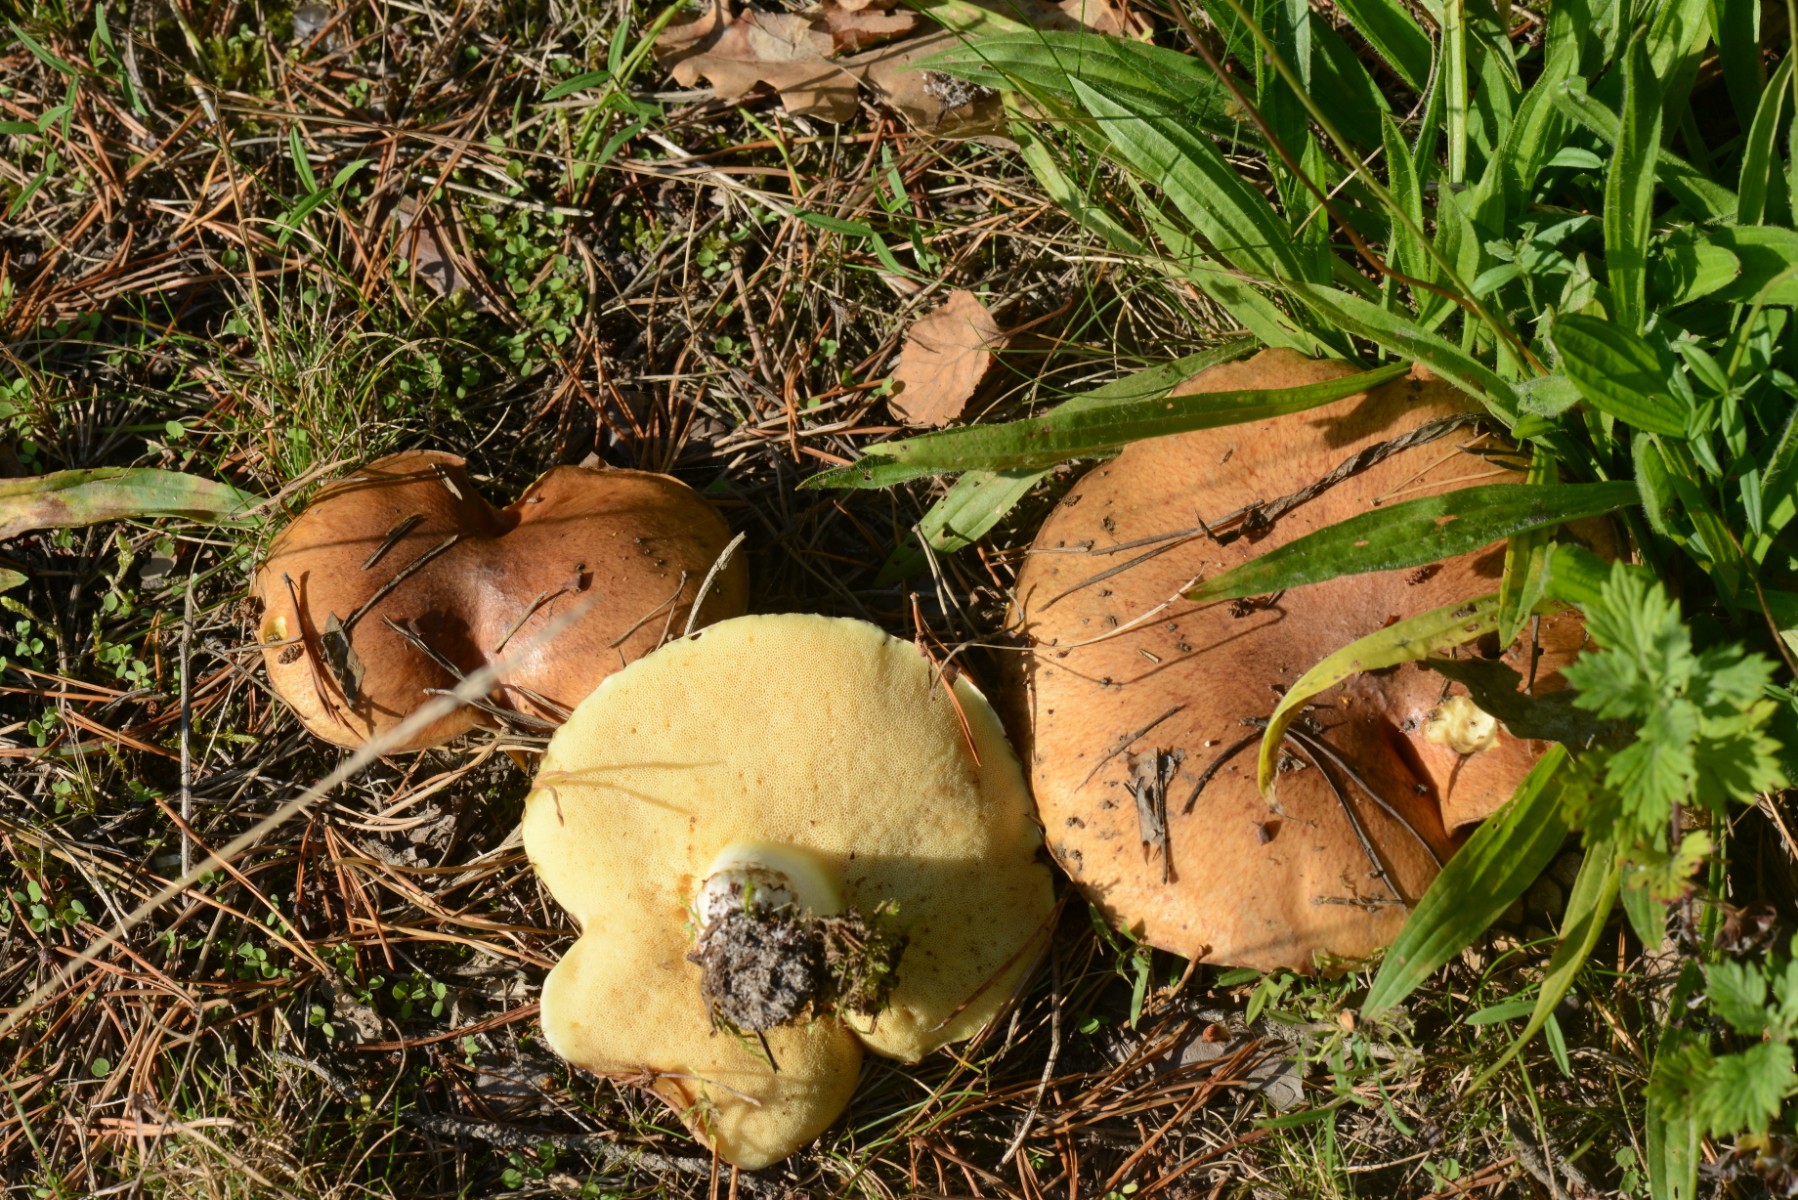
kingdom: Fungi
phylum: Basidiomycota
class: Agaricomycetes
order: Boletales
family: Suillaceae
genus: Suillus
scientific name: Suillus granulatus
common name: kornet slimrørhat
